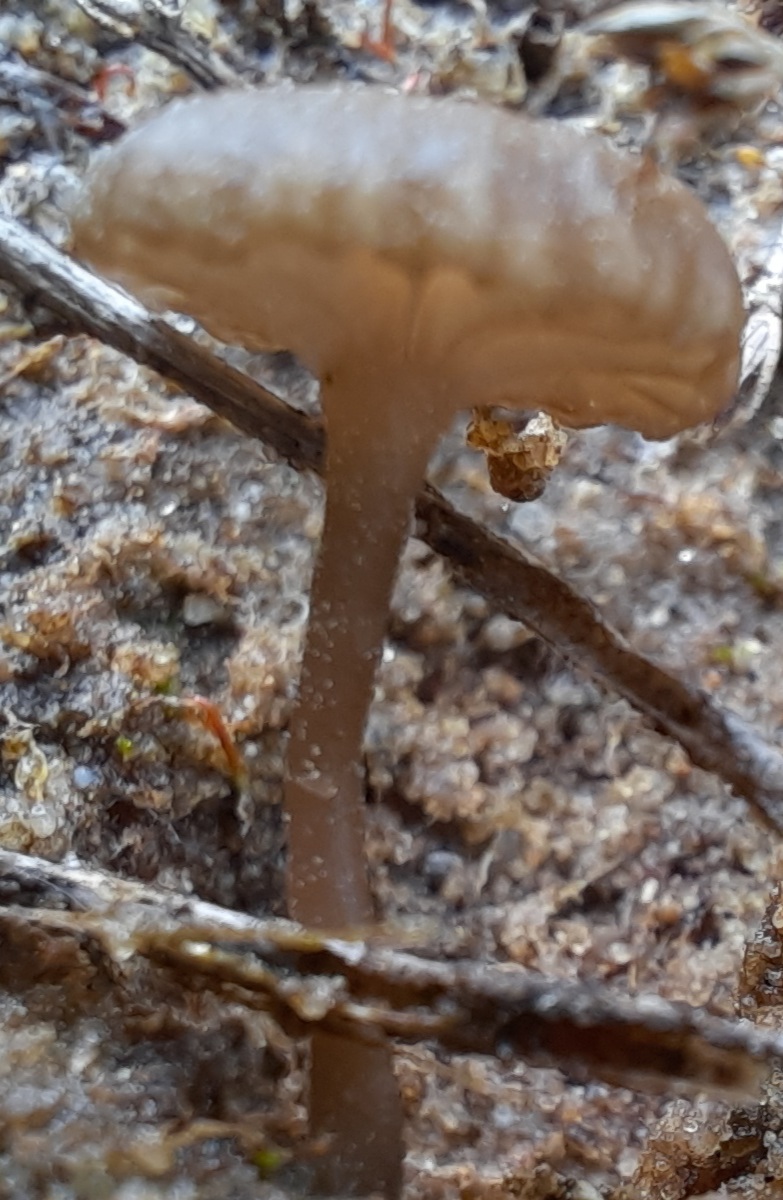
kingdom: Fungi
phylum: Basidiomycota
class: Agaricomycetes
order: Agaricales
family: Hygrophoraceae
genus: Arrhenia
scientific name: Arrhenia obscurata
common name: hede-fontænehat
